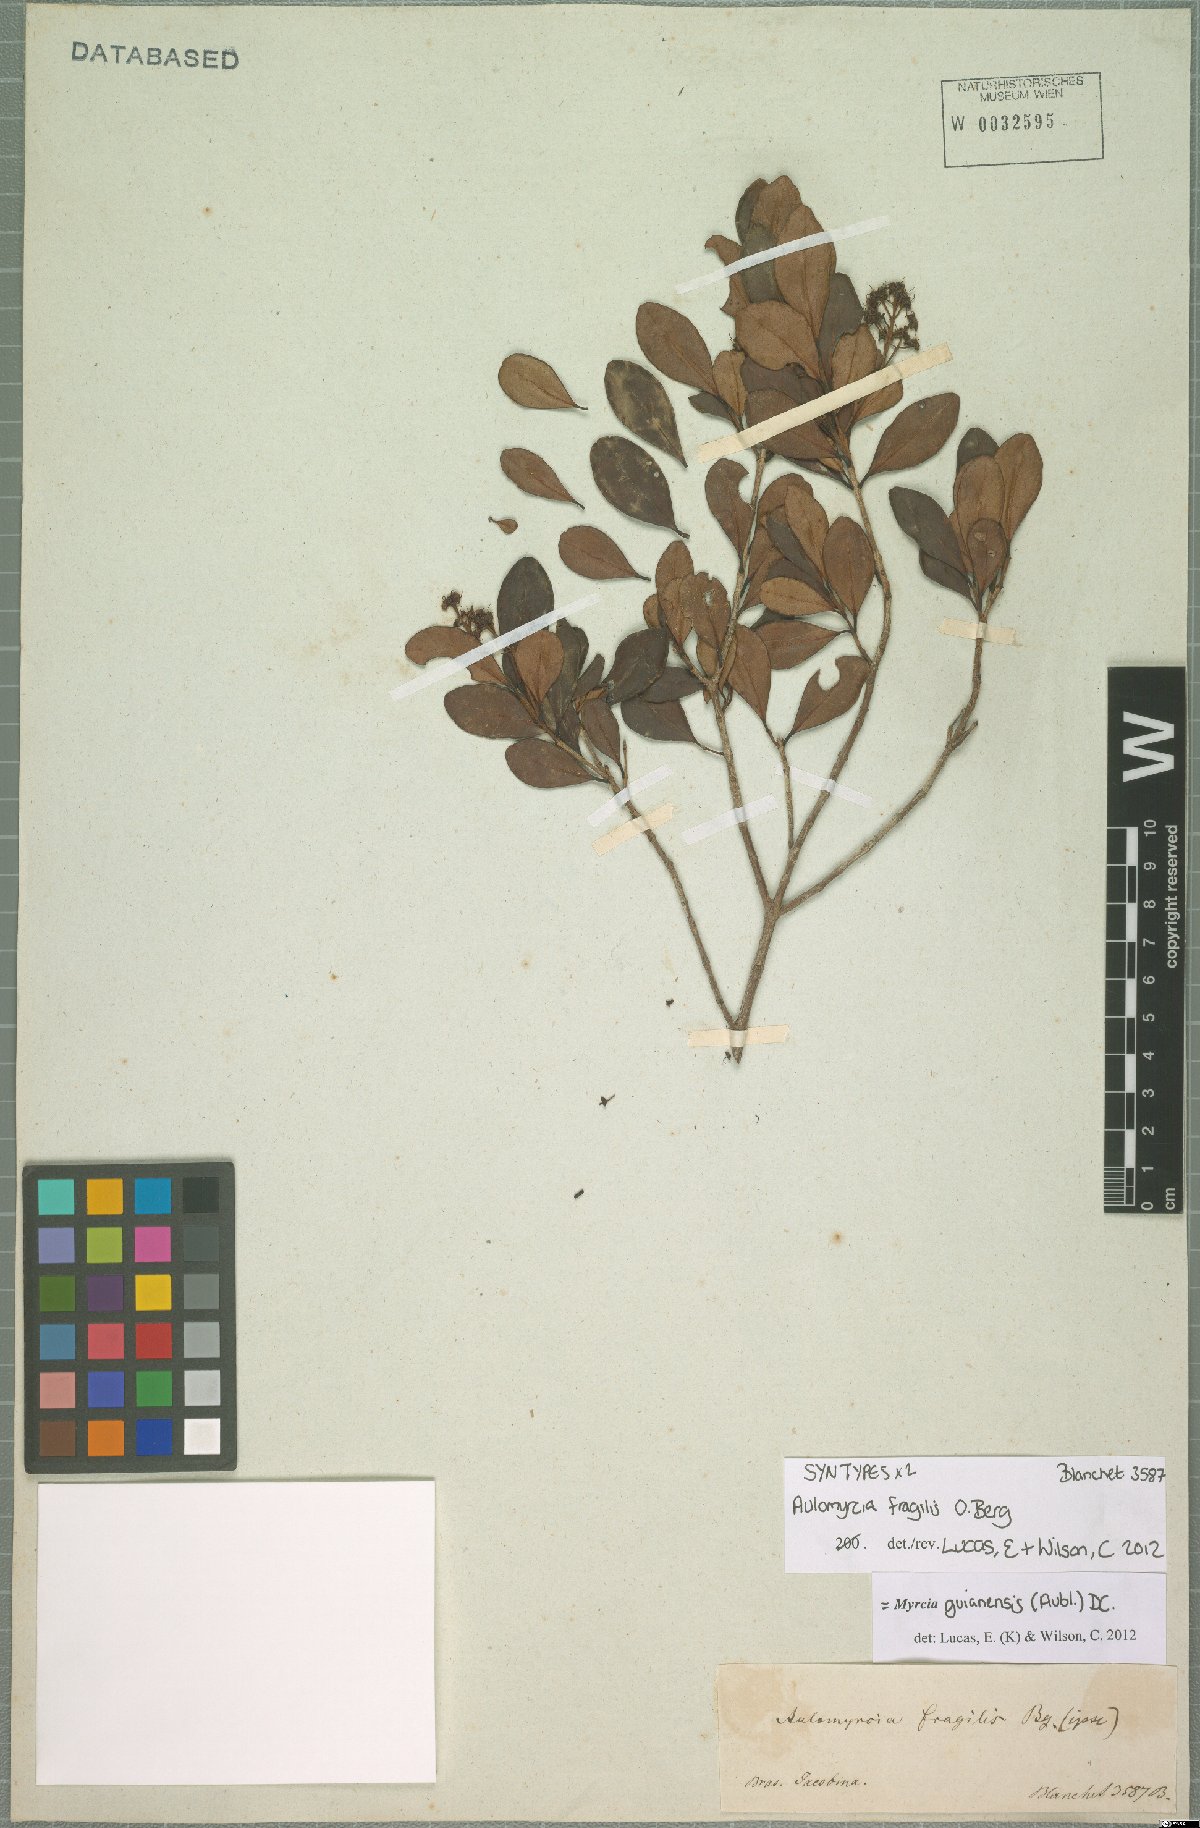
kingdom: Plantae
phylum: Tracheophyta
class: Magnoliopsida
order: Myrtales
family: Myrtaceae
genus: Myrcia
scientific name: Myrcia guianensis
